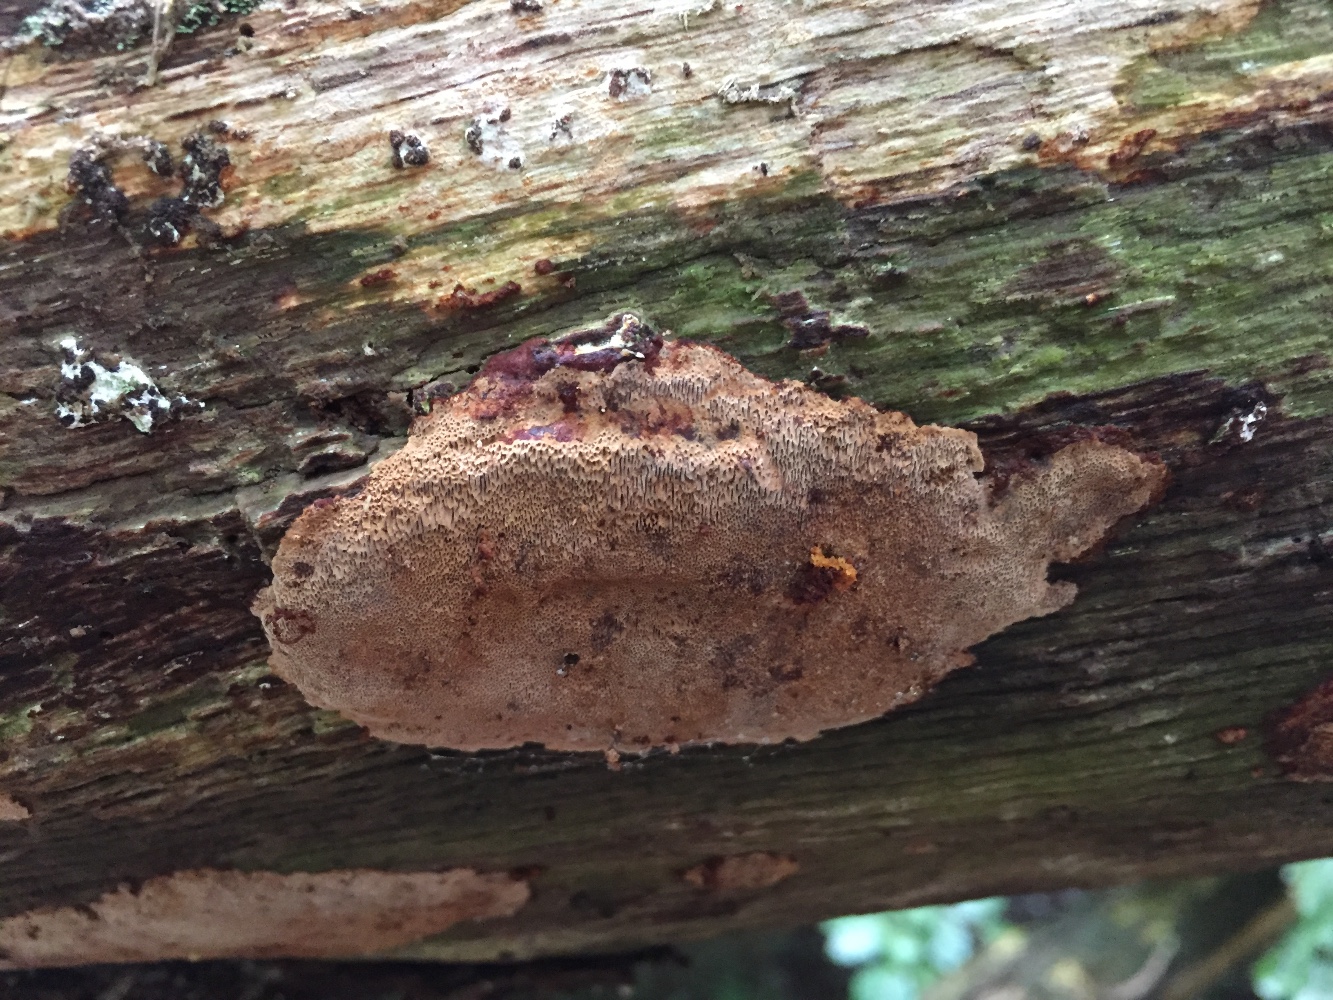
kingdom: Fungi
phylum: Basidiomycota
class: Agaricomycetes
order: Hymenochaetales
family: Hymenochaetaceae
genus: Fuscoporia
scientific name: Fuscoporia ferrea
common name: skorpe-ildporesvamp
